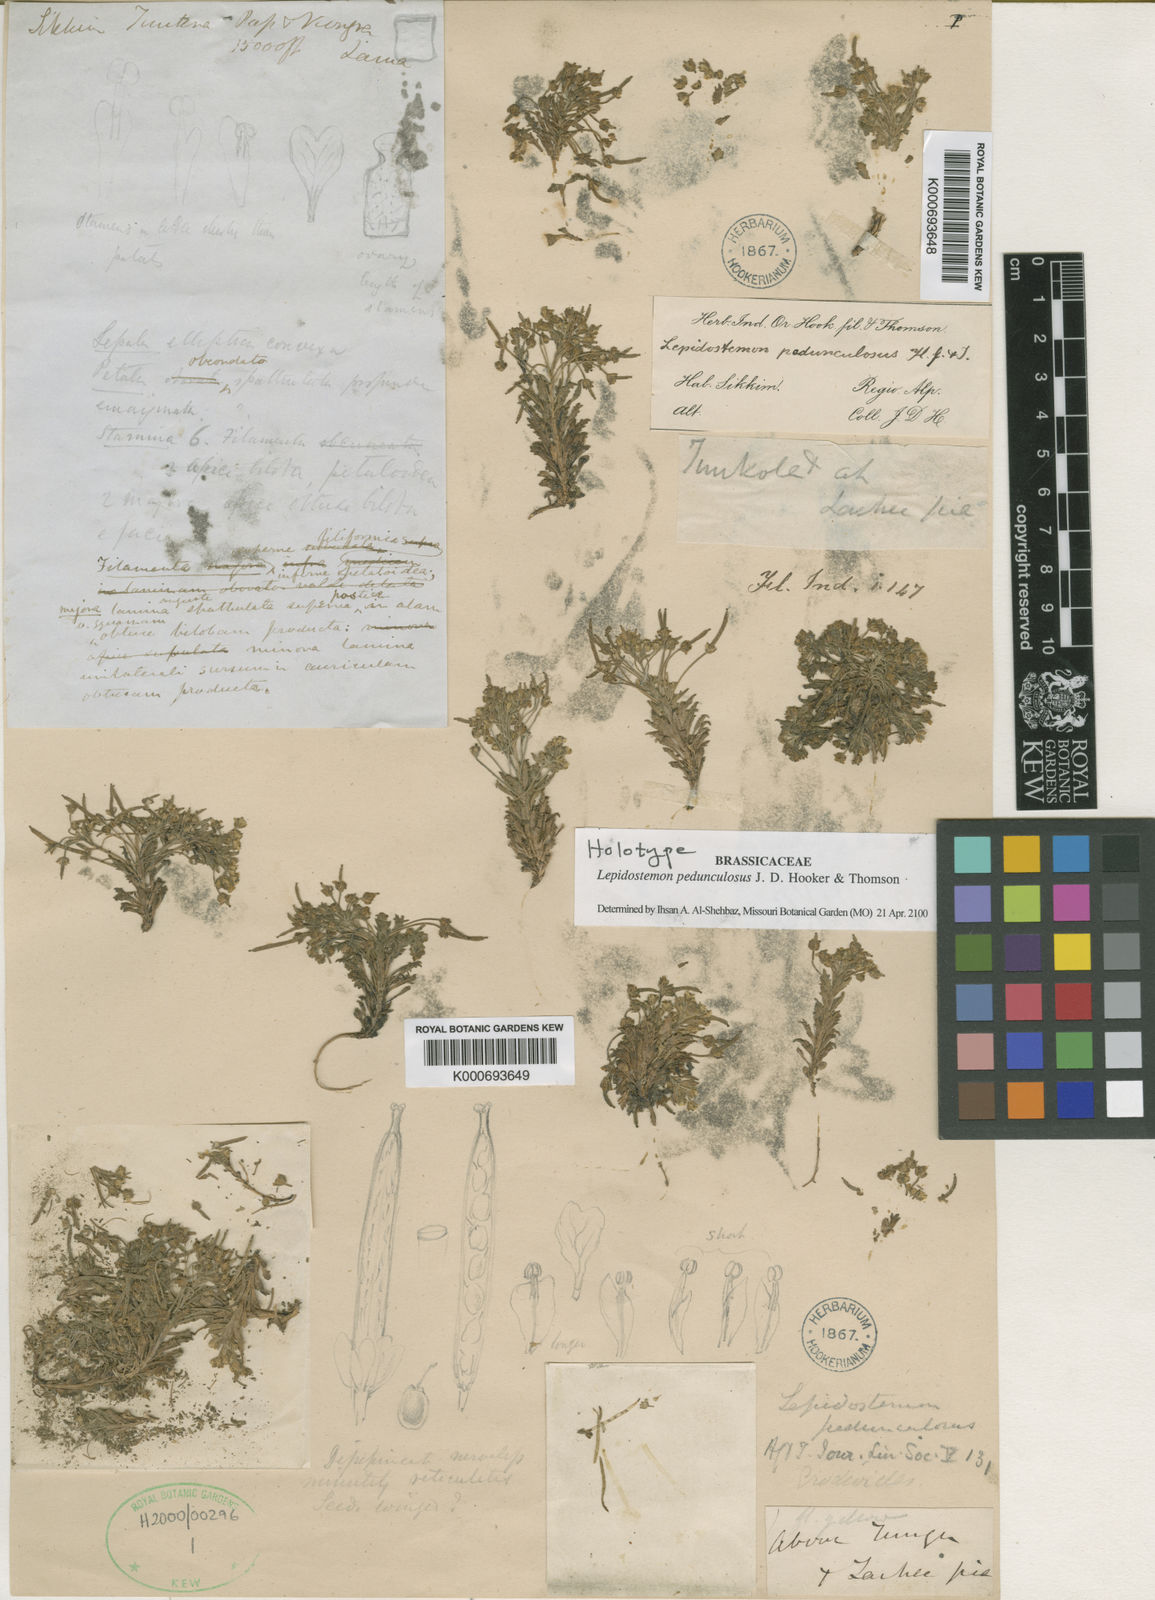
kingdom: Plantae
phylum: Tracheophyta
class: Magnoliopsida
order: Brassicales
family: Brassicaceae
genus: Lepidostemon
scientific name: Lepidostemon pedunculosus
